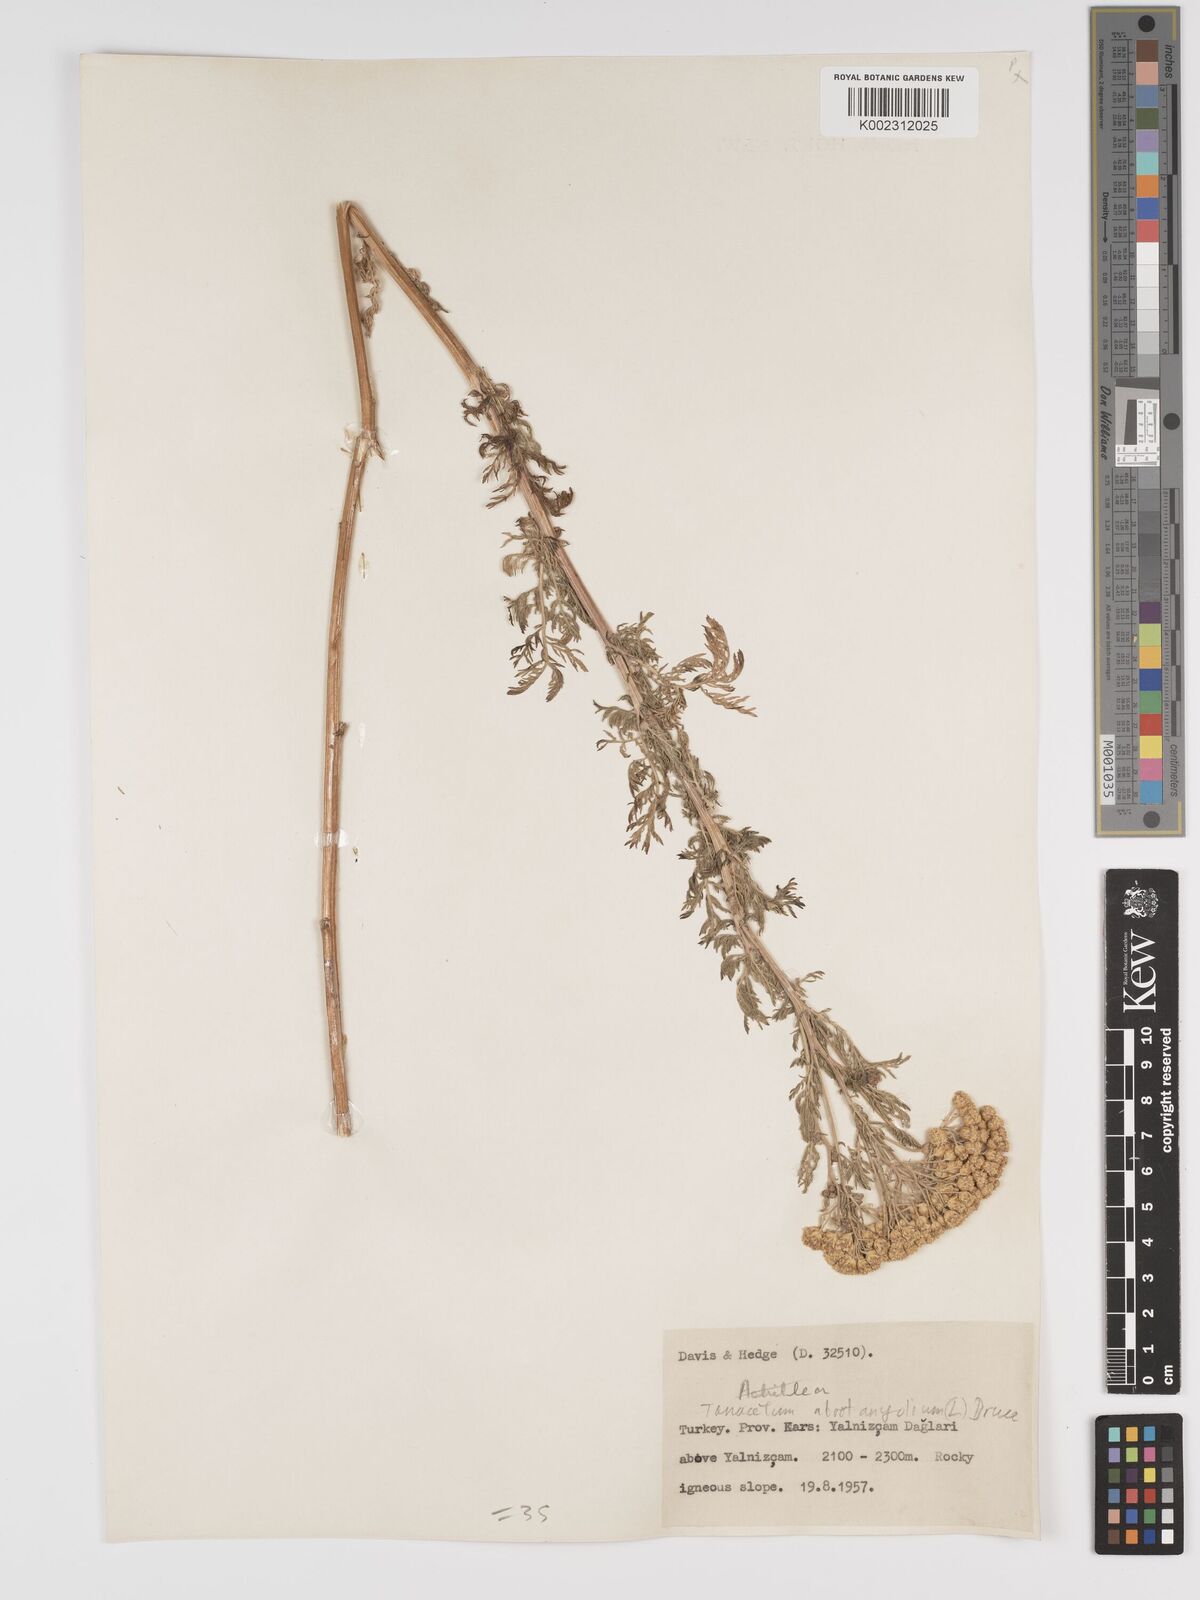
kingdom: Plantae
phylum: Tracheophyta
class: Magnoliopsida
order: Asterales
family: Asteraceae
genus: Tanacetum
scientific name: Tanacetum abrotanifolium
